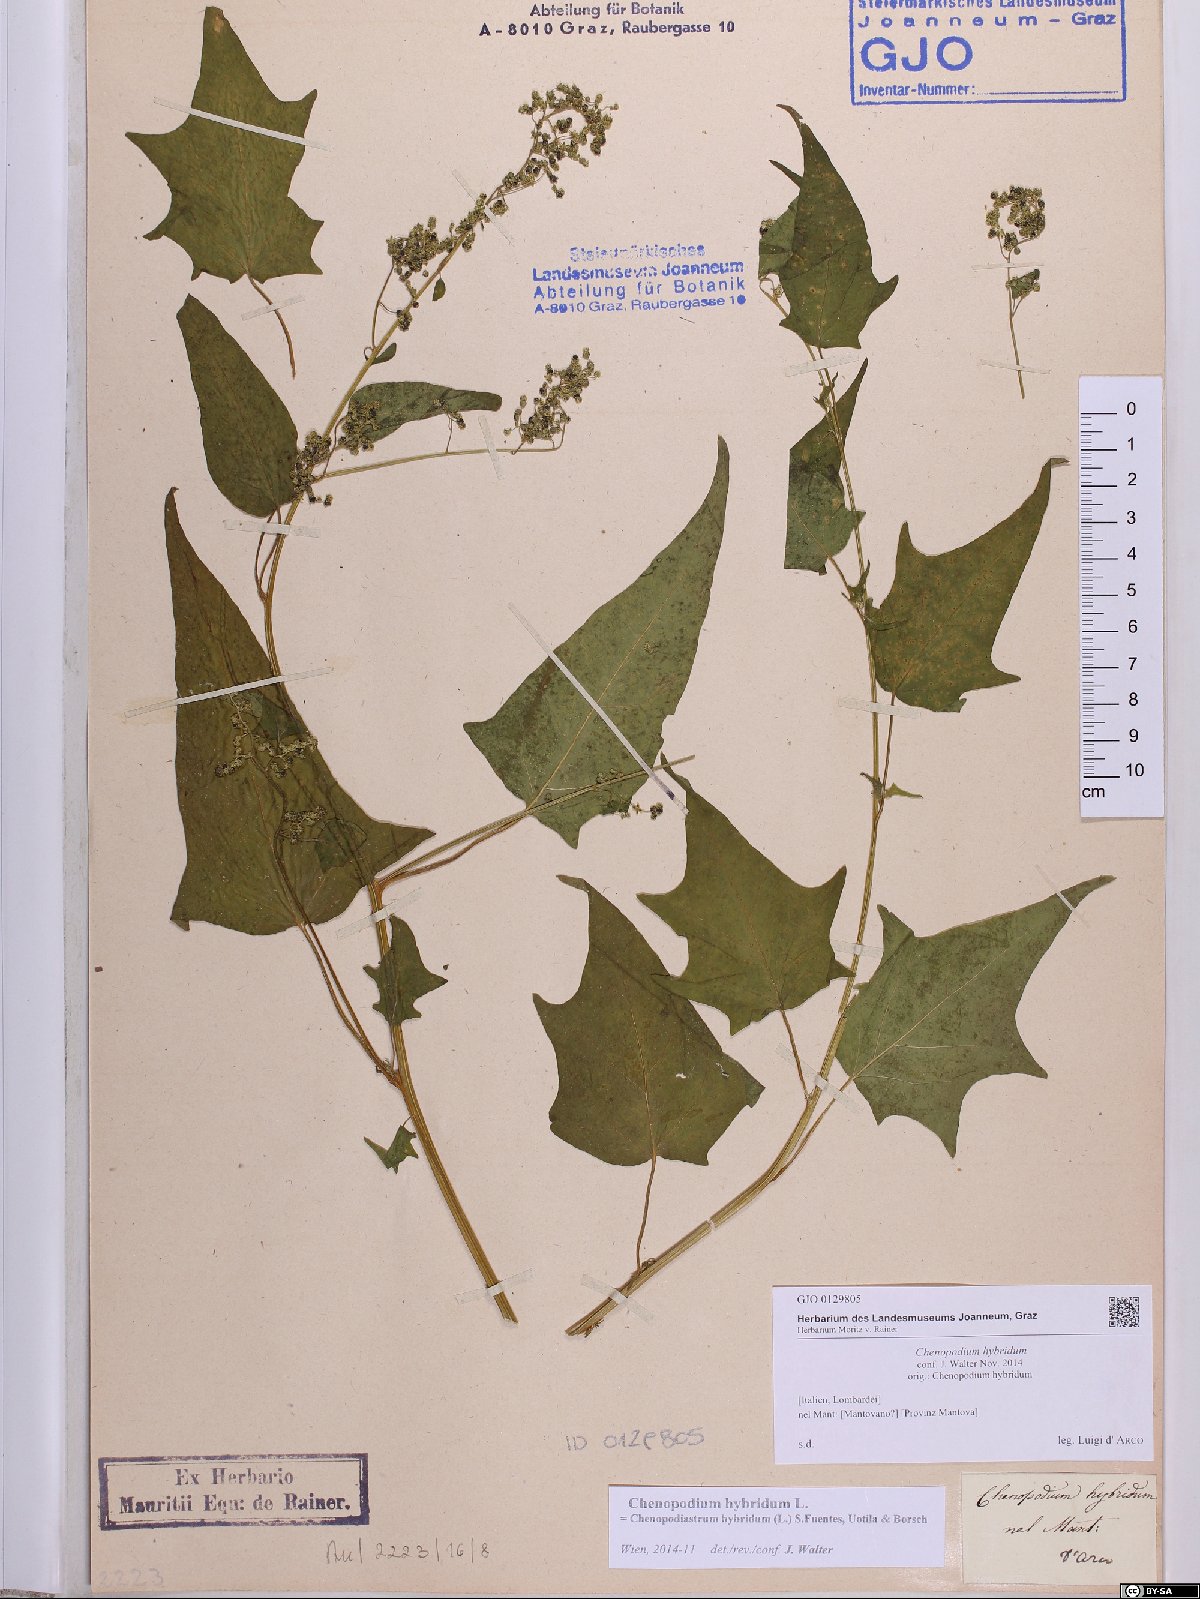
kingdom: Plantae
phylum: Tracheophyta
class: Magnoliopsida
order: Caryophyllales
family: Amaranthaceae
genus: Chenopodiastrum
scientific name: Chenopodiastrum hybridum
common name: Mapleleaf goosefoot
